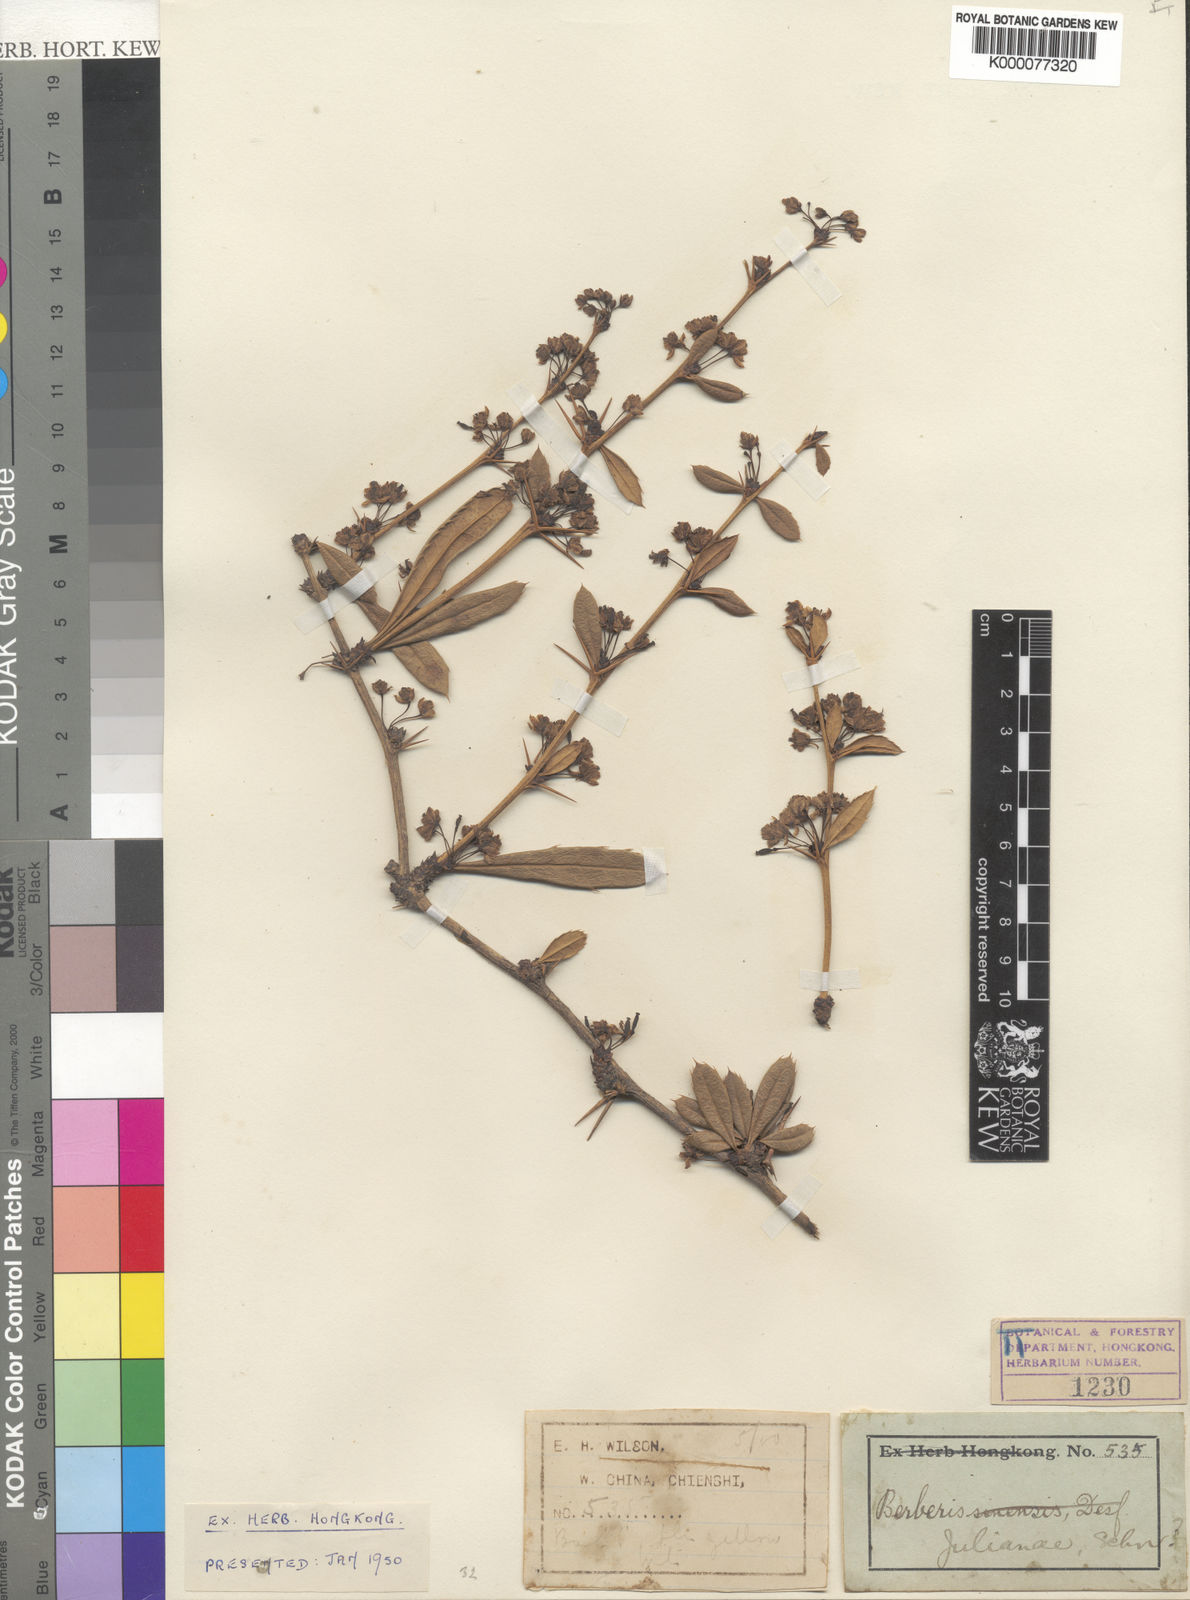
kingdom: Plantae
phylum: Tracheophyta
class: Magnoliopsida
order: Ranunculales
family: Berberidaceae
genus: Berberis
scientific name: Berberis julianae
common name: Wintergreen barberry
